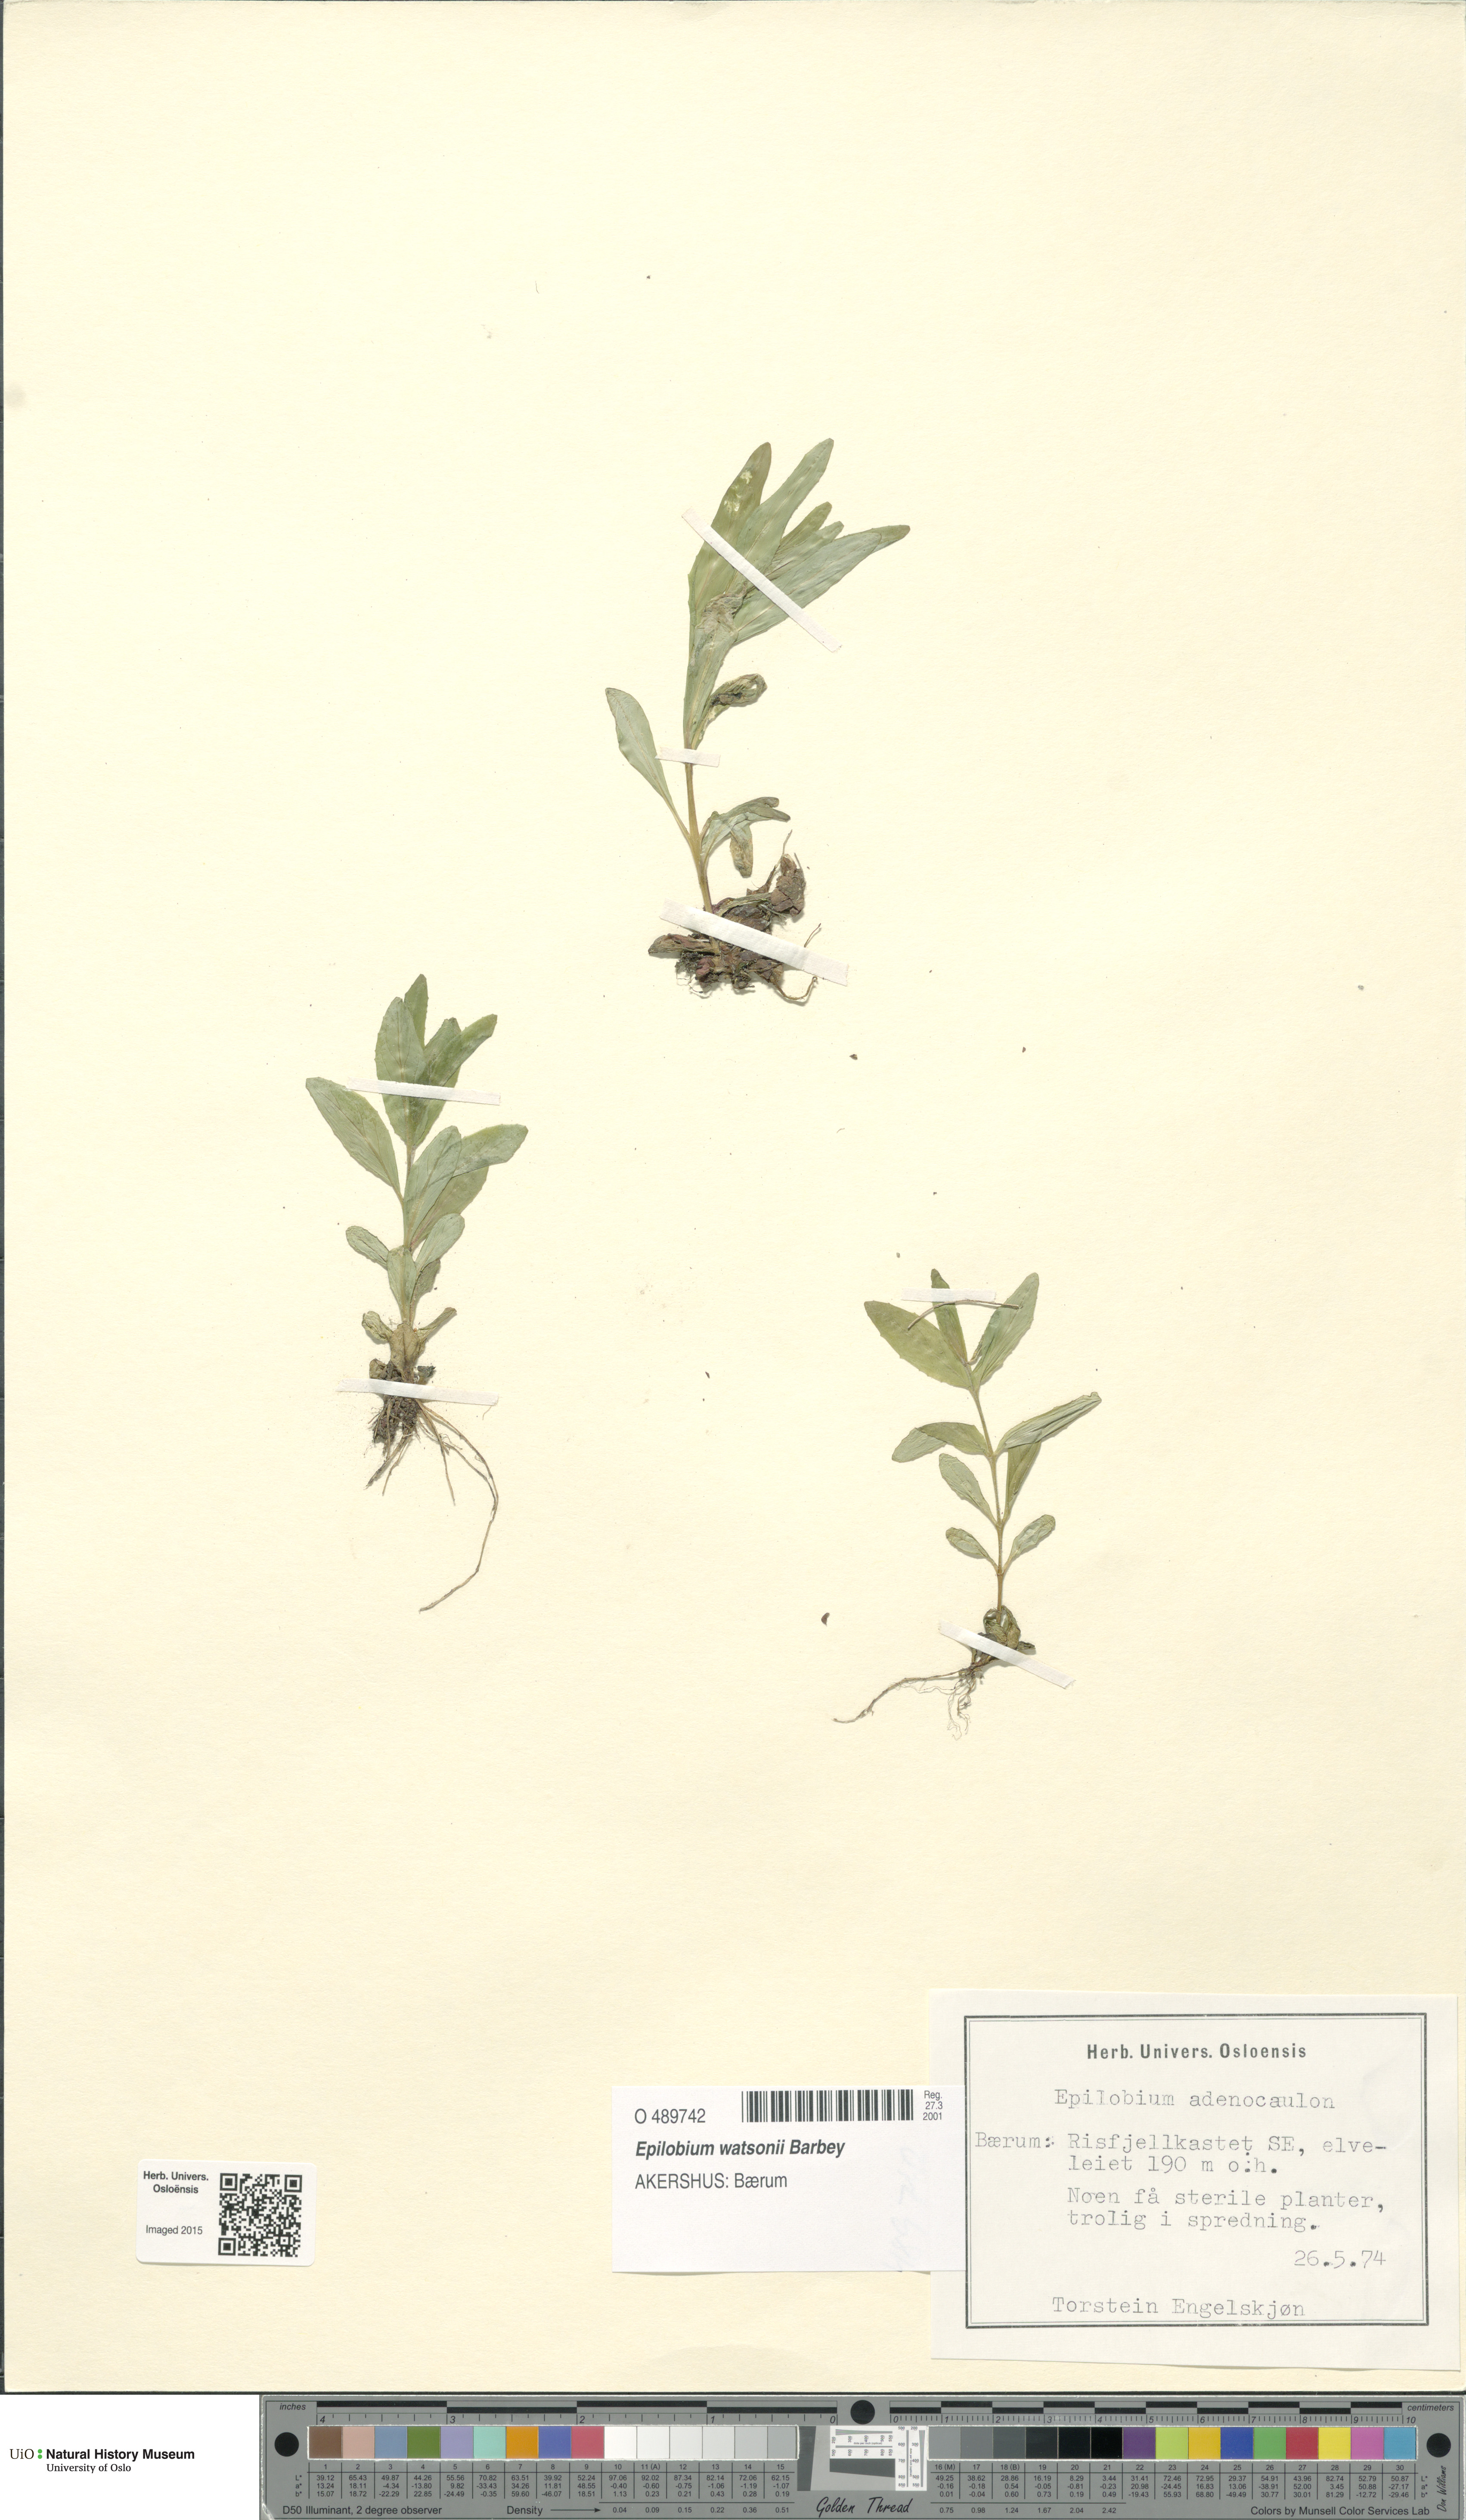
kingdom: Plantae
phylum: Tracheophyta
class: Magnoliopsida
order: Myrtales
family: Onagraceae
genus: Epilobium
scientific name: Epilobium ciliatum
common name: American willowherb
